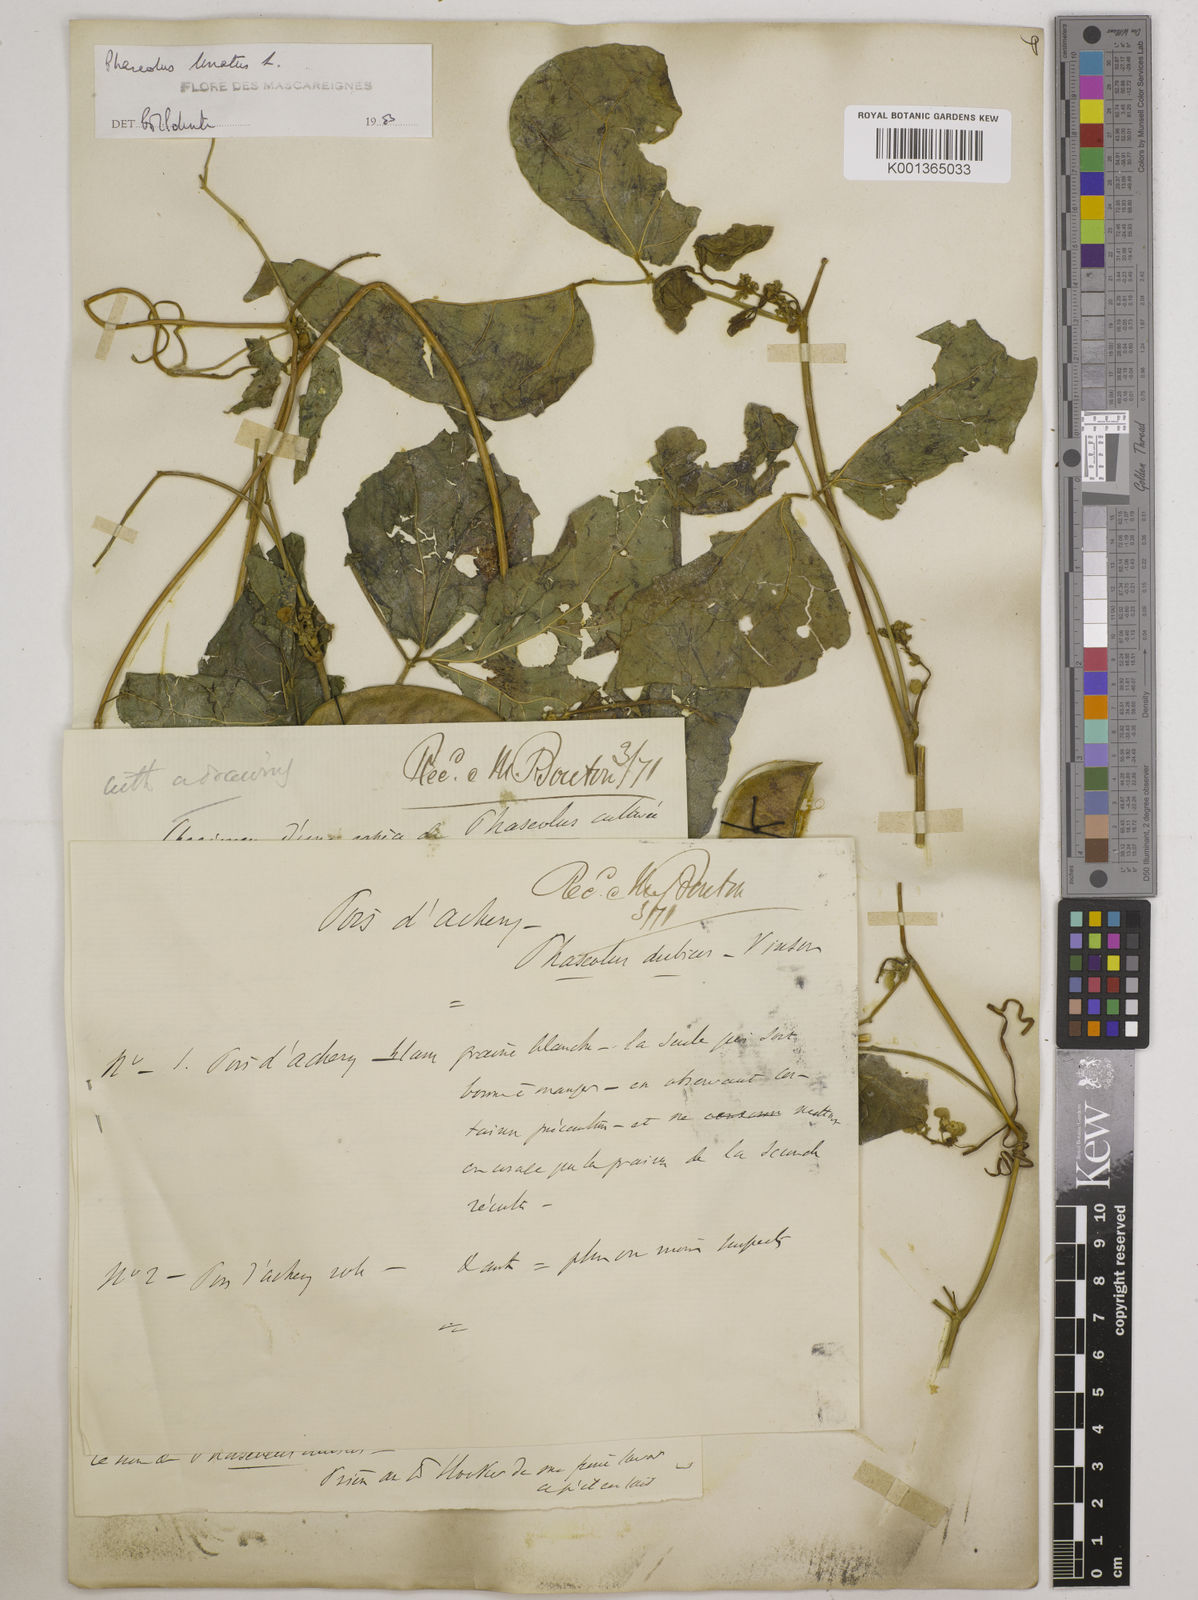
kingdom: Plantae
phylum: Tracheophyta
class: Magnoliopsida
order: Fabales
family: Fabaceae
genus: Phaseolus
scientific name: Phaseolus lunatus
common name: Sieva bean
